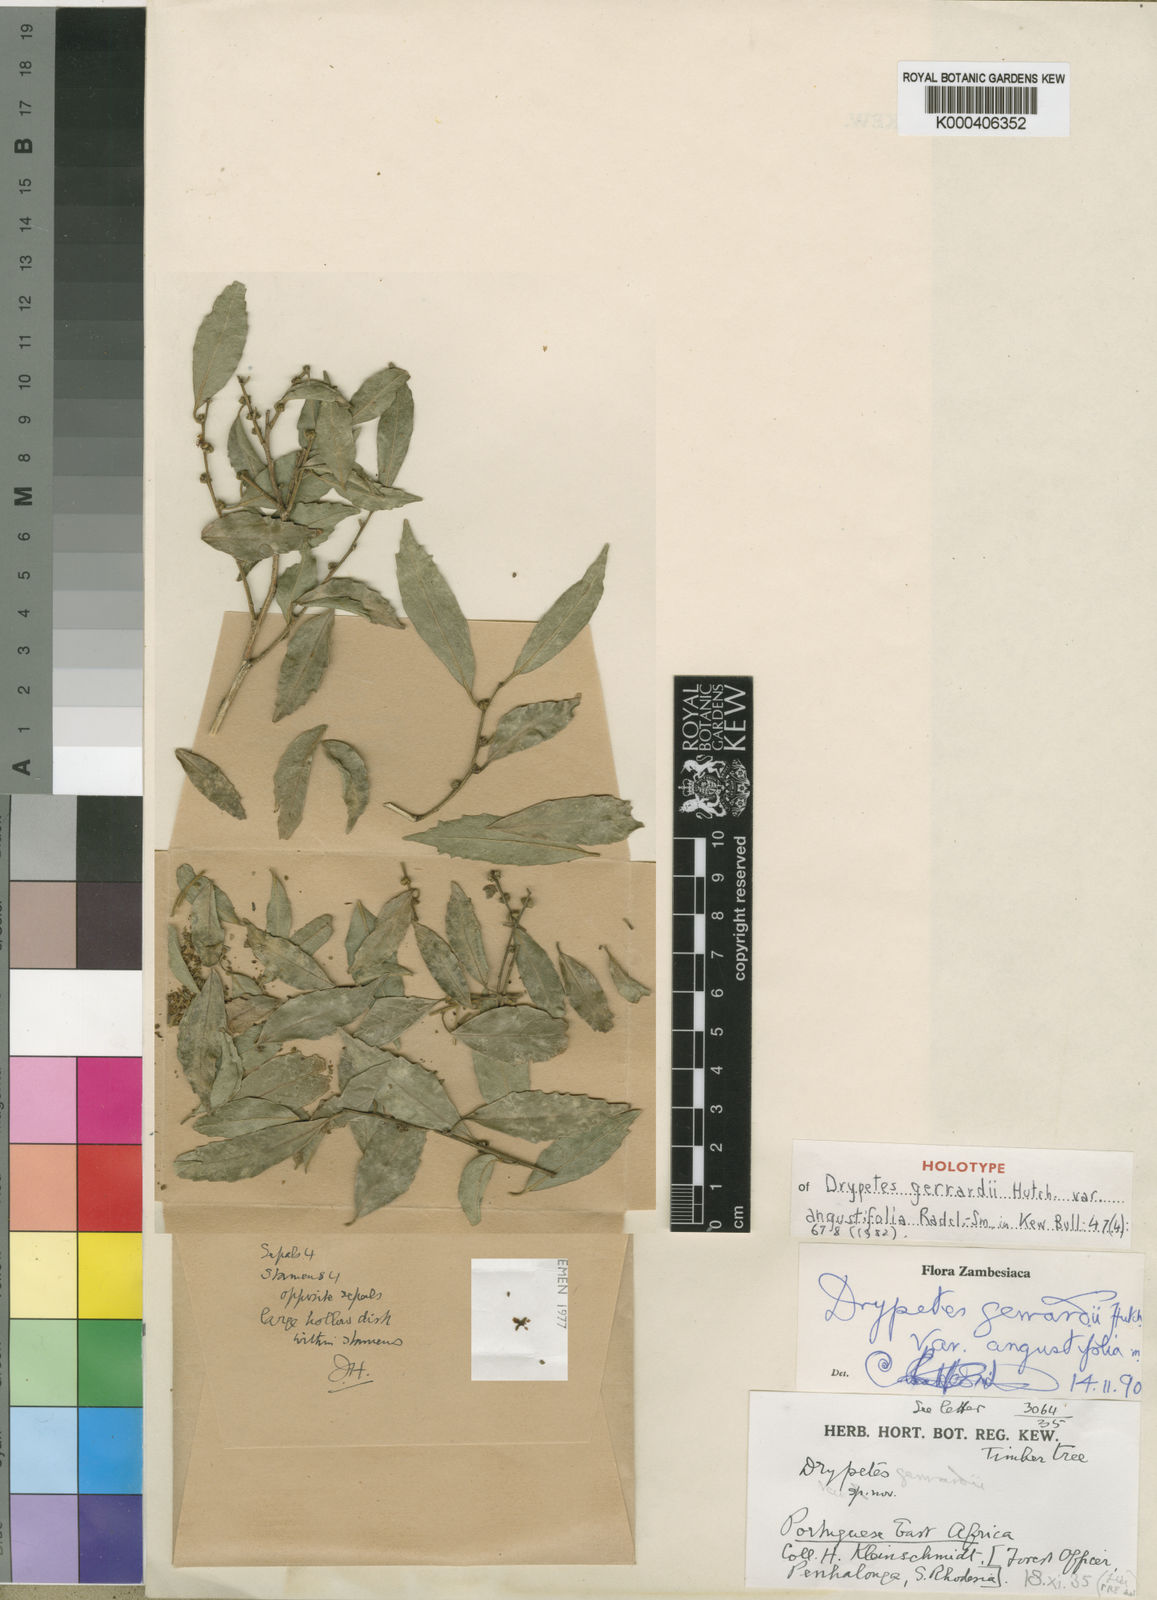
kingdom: Plantae
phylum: Tracheophyta
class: Magnoliopsida
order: Malpighiales
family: Putranjivaceae
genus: Drypetes
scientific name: Drypetes gerrardii
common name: Forest ironplum
